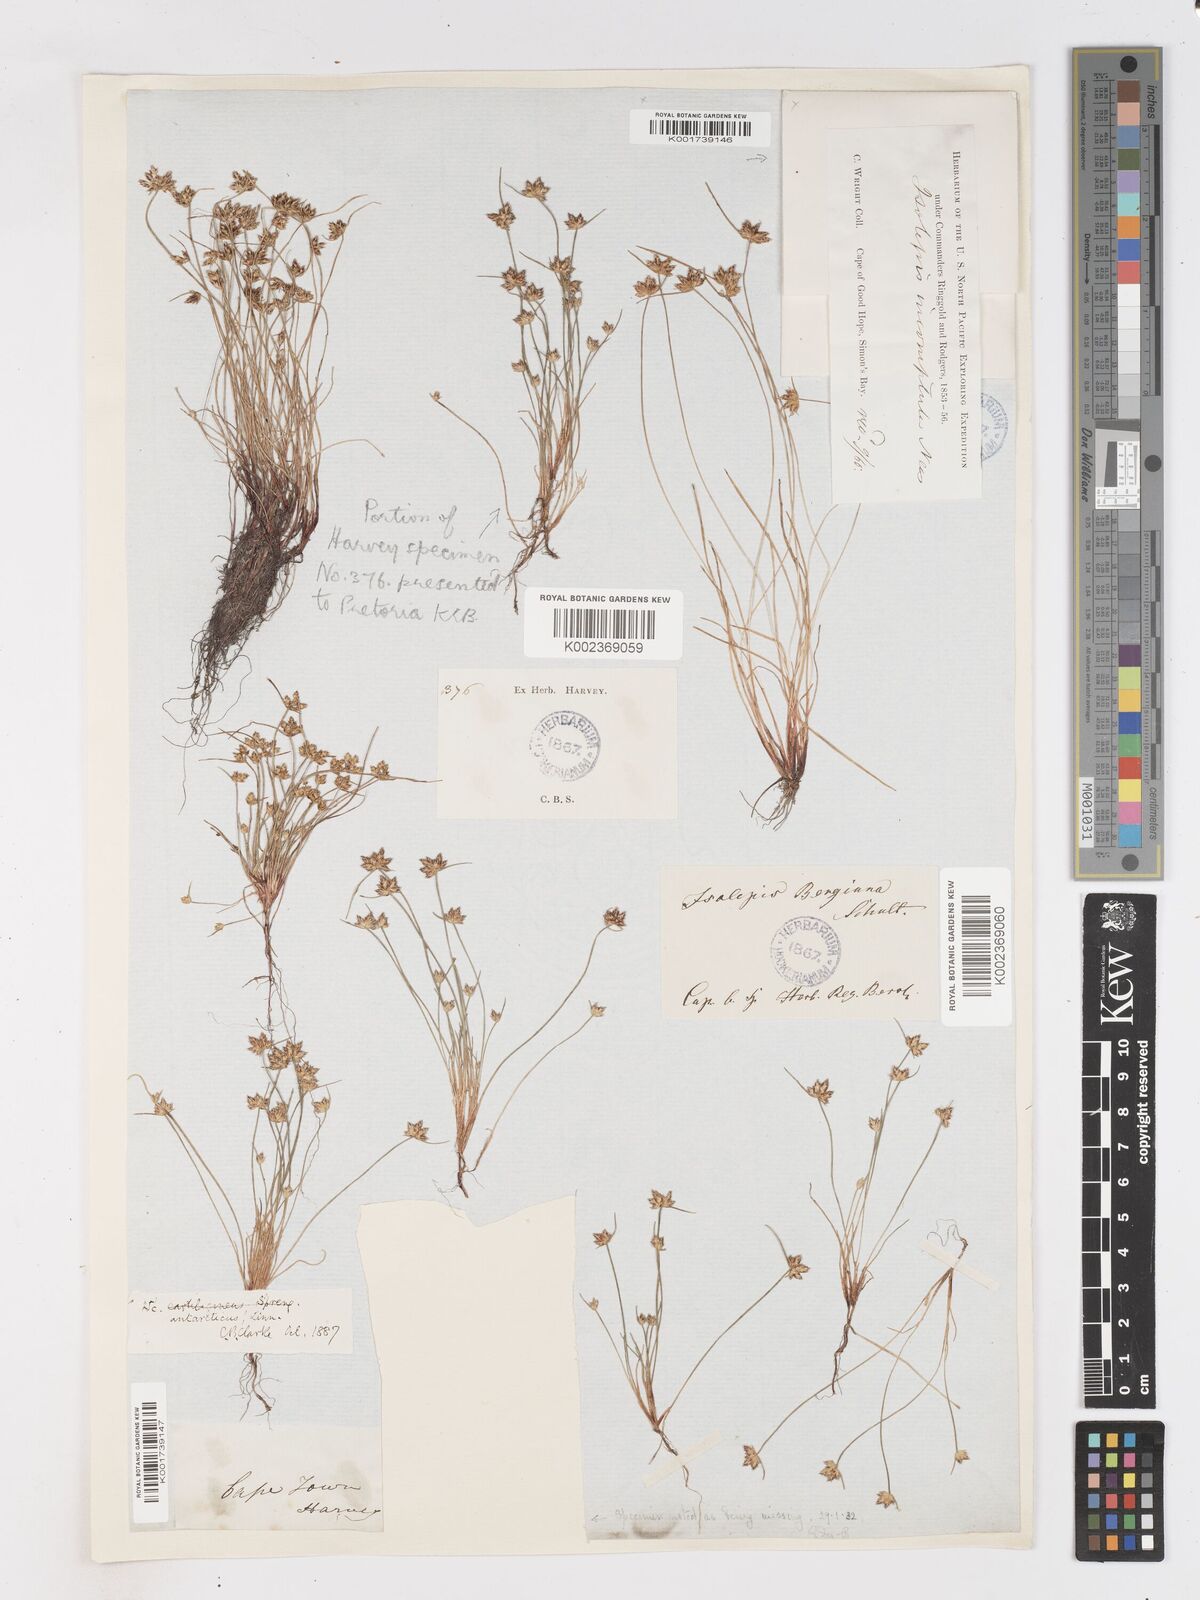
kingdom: Plantae
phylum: Tracheophyta
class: Liliopsida
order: Poales
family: Cyperaceae
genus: Isolepis
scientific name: Isolepis diabolica
